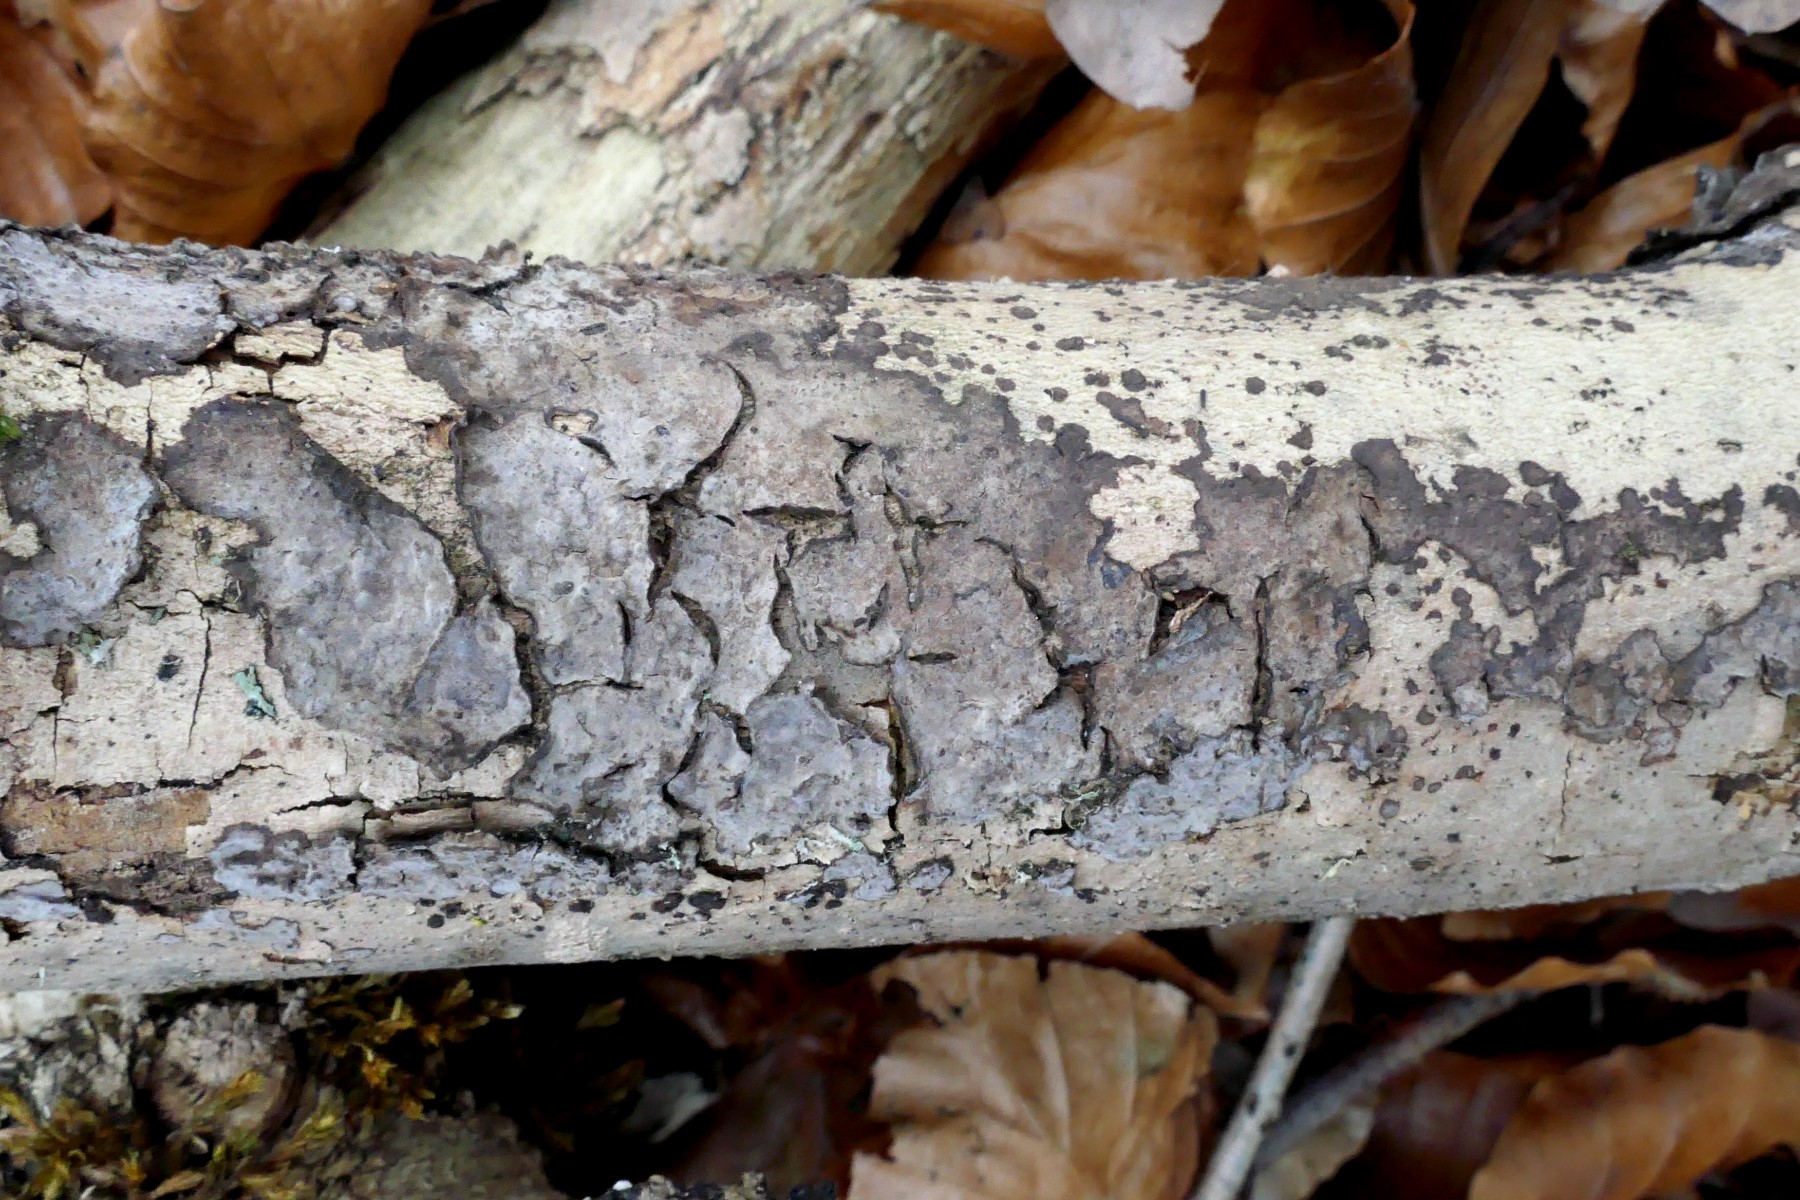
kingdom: Fungi
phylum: Basidiomycota
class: Agaricomycetes
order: Russulales
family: Peniophoraceae
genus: Peniophora
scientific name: Peniophora limitata
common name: mørkrandet voksskind
